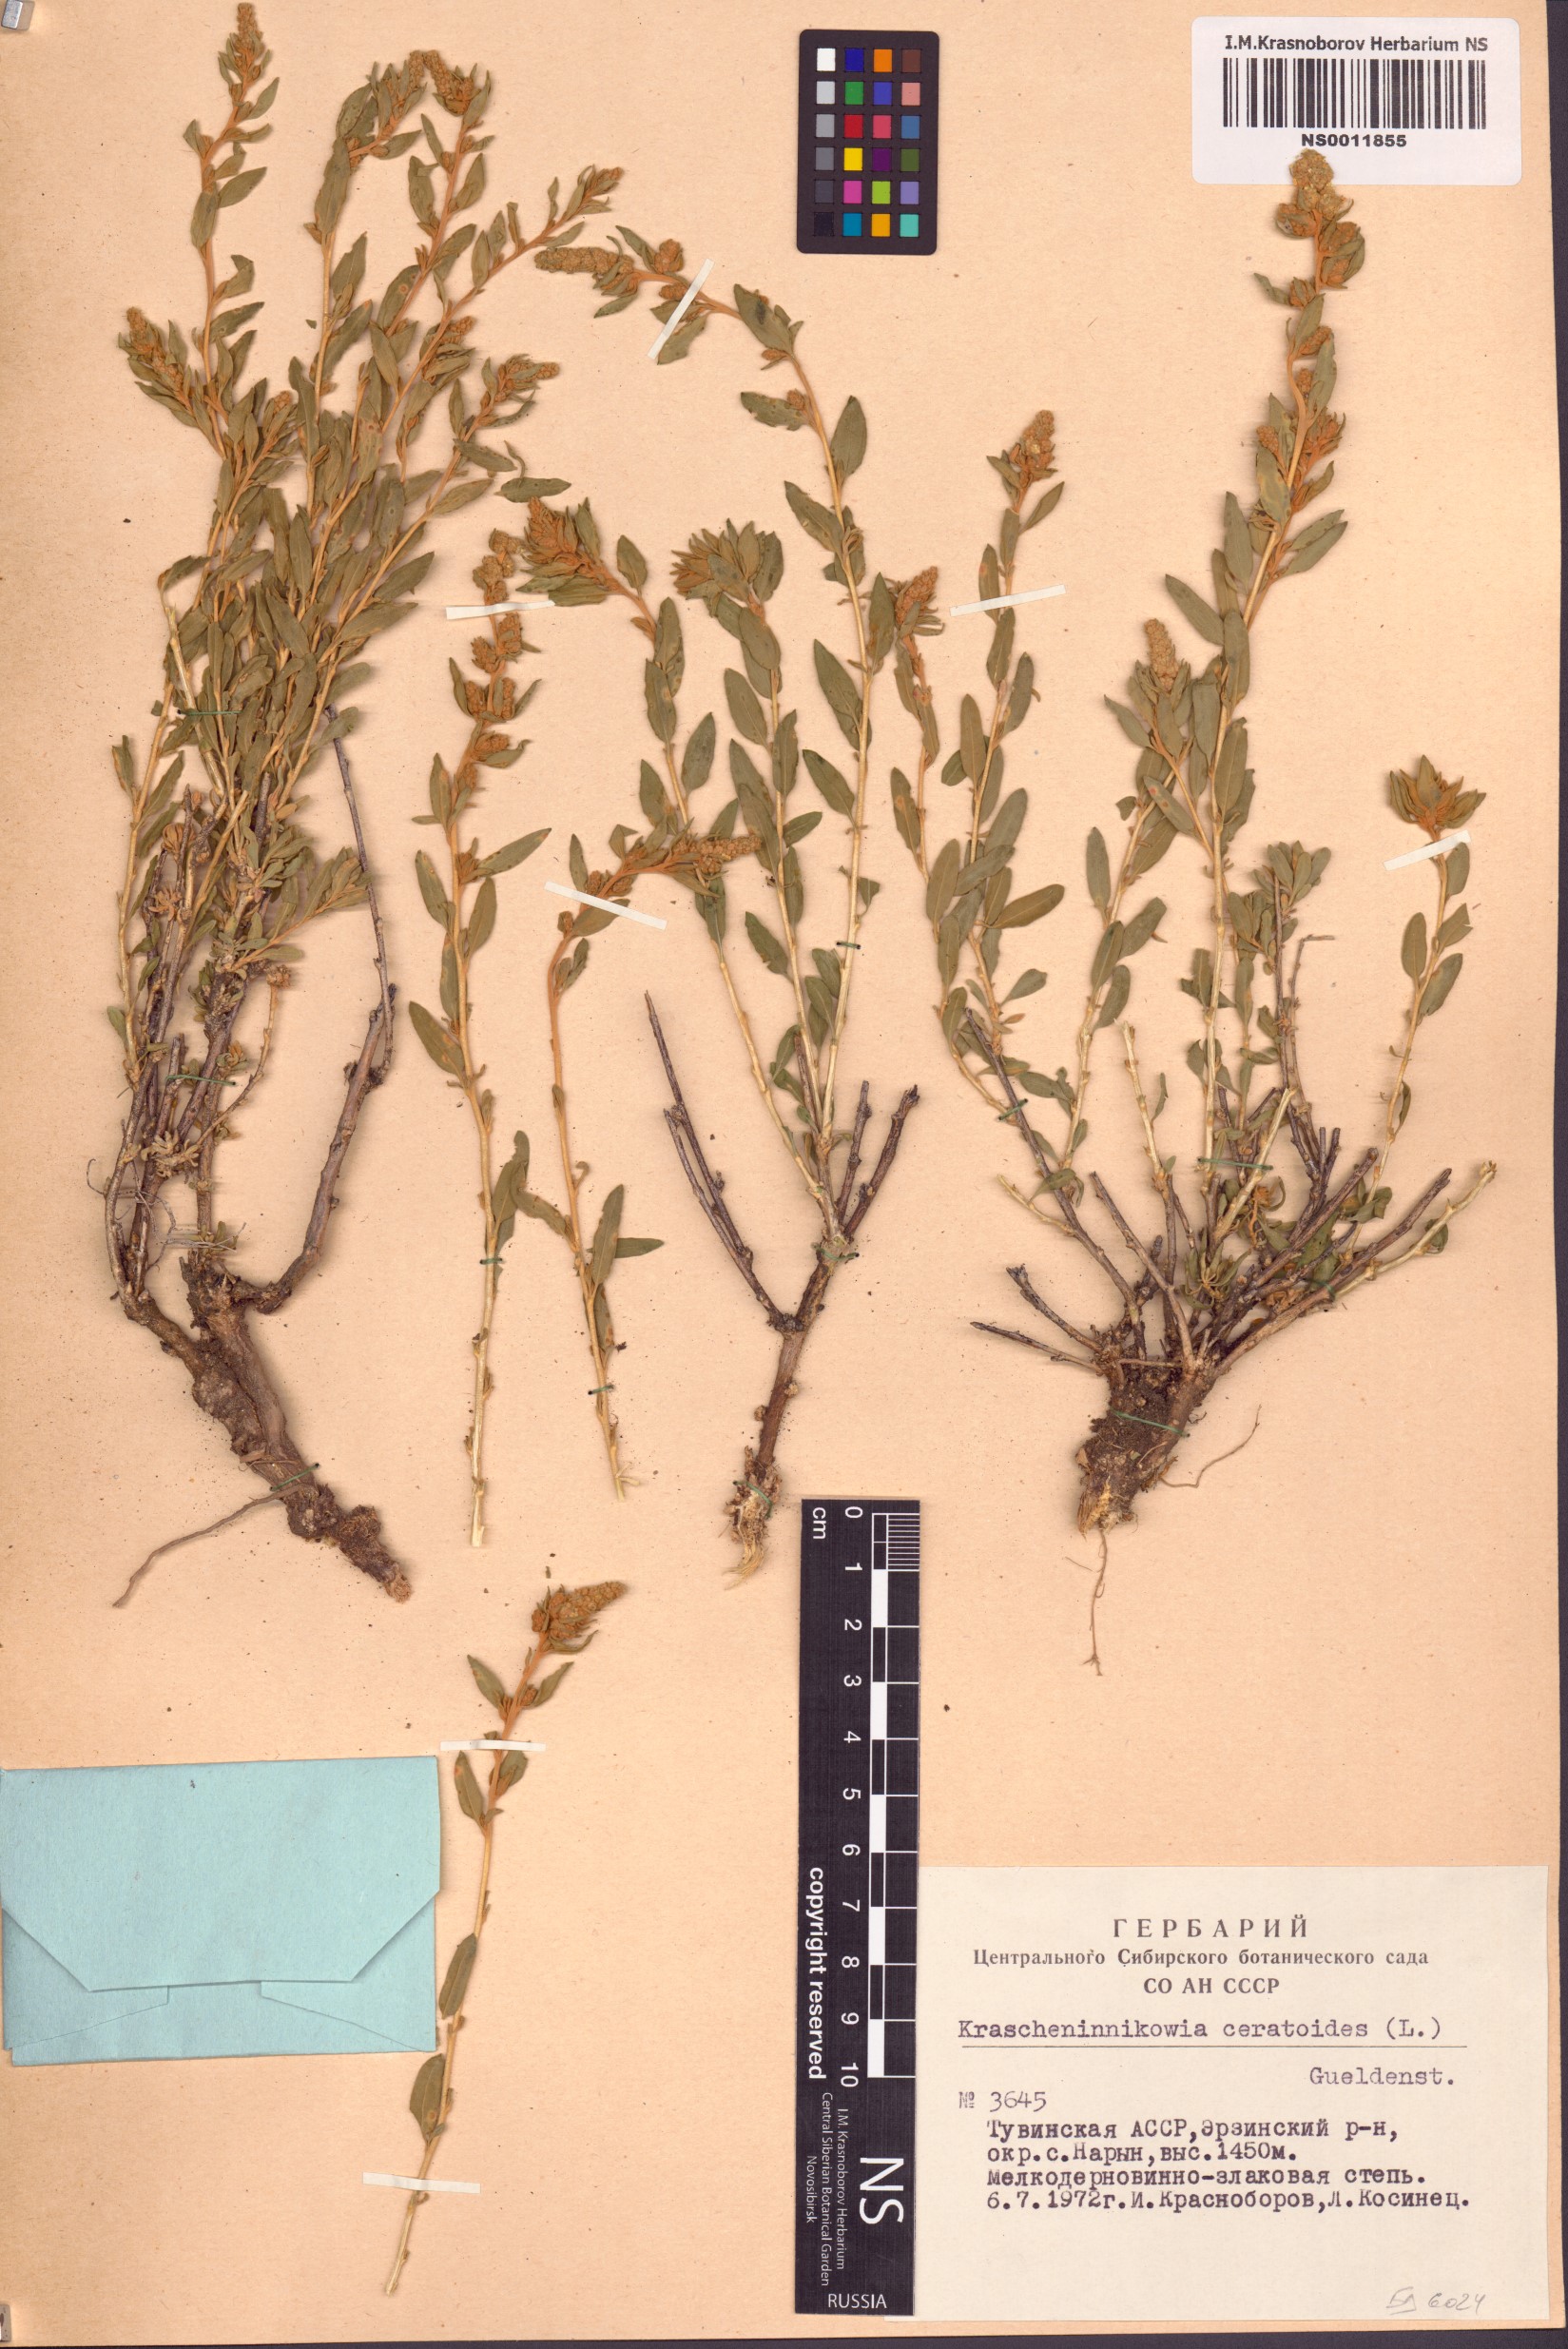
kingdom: Plantae
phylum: Tracheophyta
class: Magnoliopsida
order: Caryophyllales
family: Amaranthaceae
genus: Krascheninnikovia
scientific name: Krascheninnikovia ceratoides
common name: Pamirian winterfat
